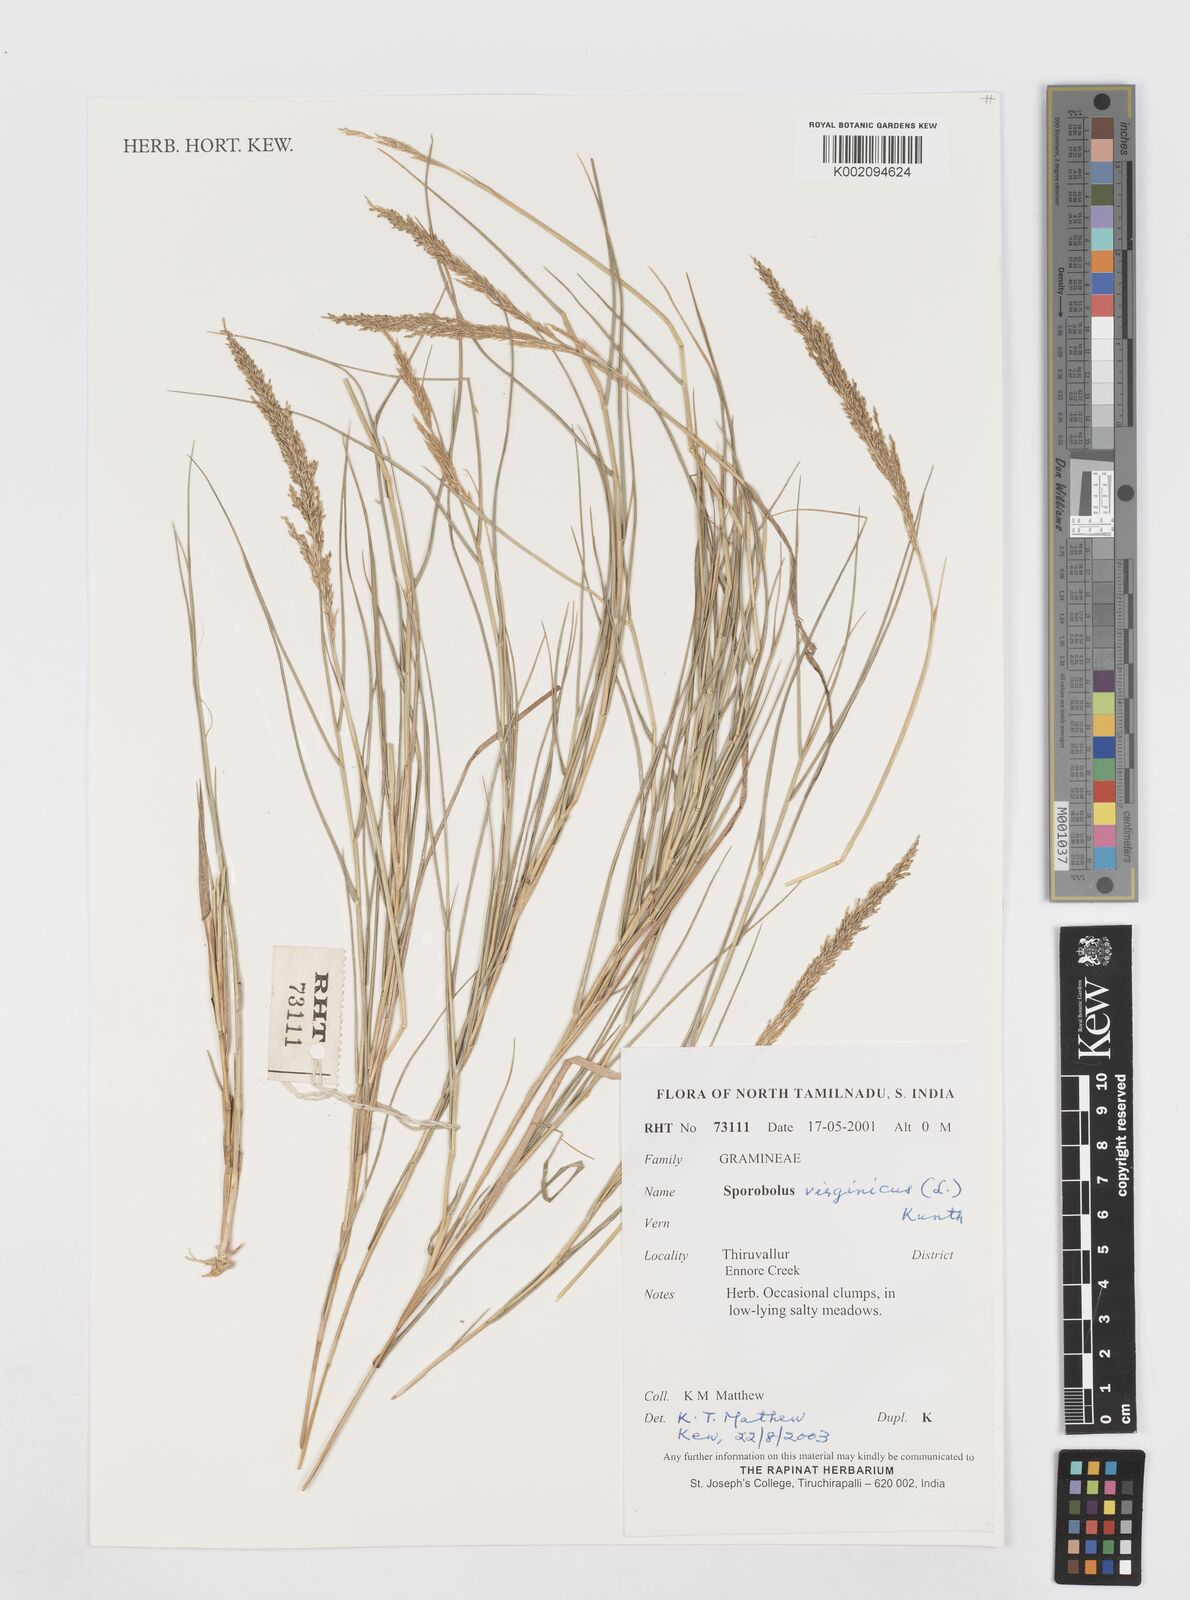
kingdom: Plantae
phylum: Tracheophyta
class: Liliopsida
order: Poales
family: Poaceae
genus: Sporobolus
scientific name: Sporobolus virginicus
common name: Beach dropseed
